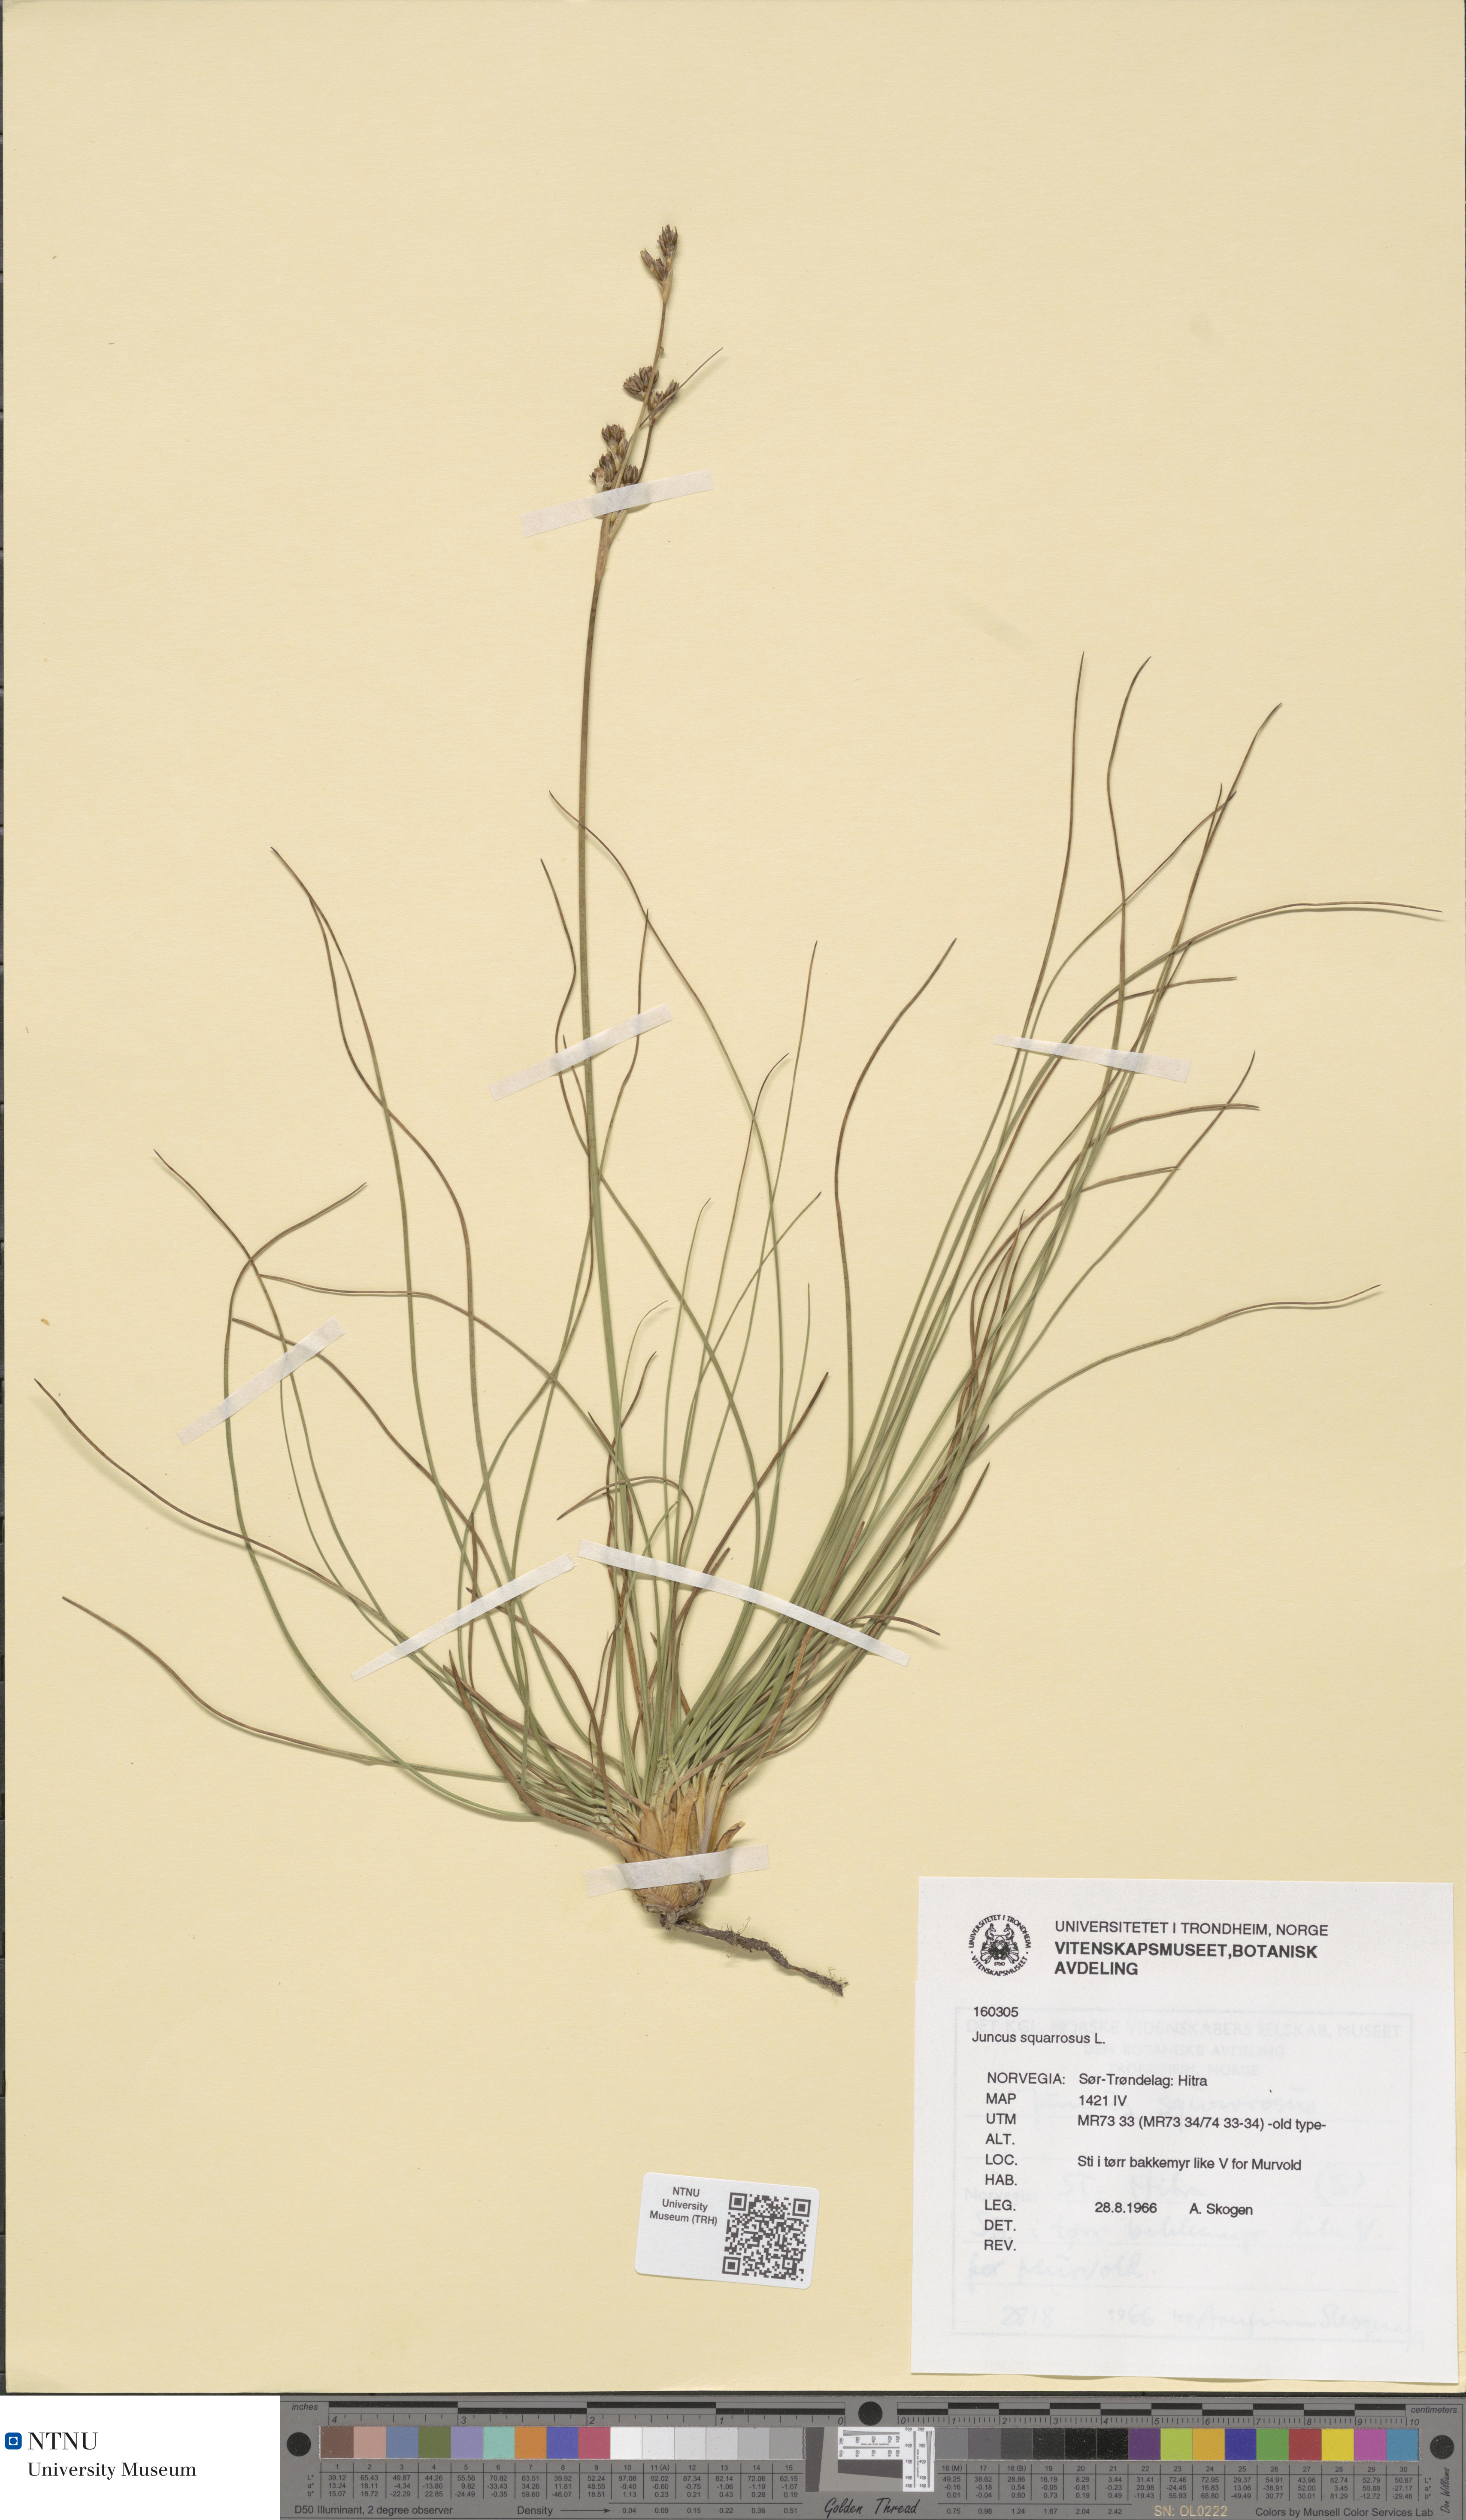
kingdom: Plantae
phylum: Tracheophyta
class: Liliopsida
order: Poales
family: Juncaceae
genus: Juncus
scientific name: Juncus squarrosus
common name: Heath rush
